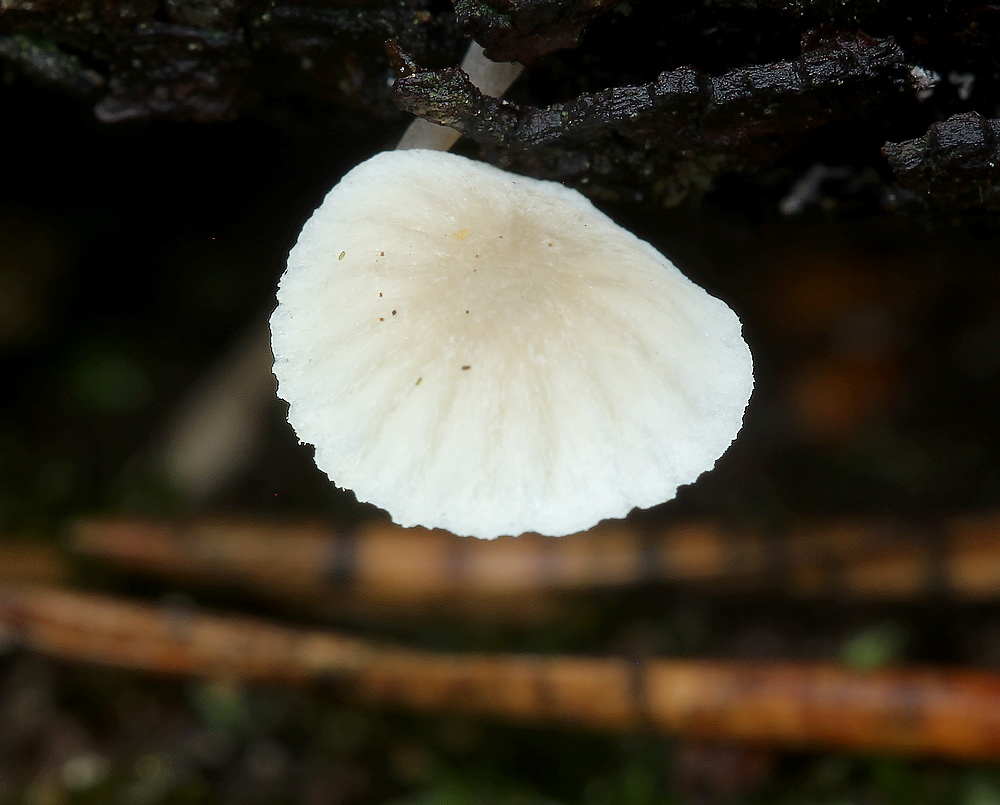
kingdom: Fungi
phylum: Basidiomycota
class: Agaricomycetes
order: Agaricales
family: Mycenaceae
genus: Mycena
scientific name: Mycena
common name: huesvamp
